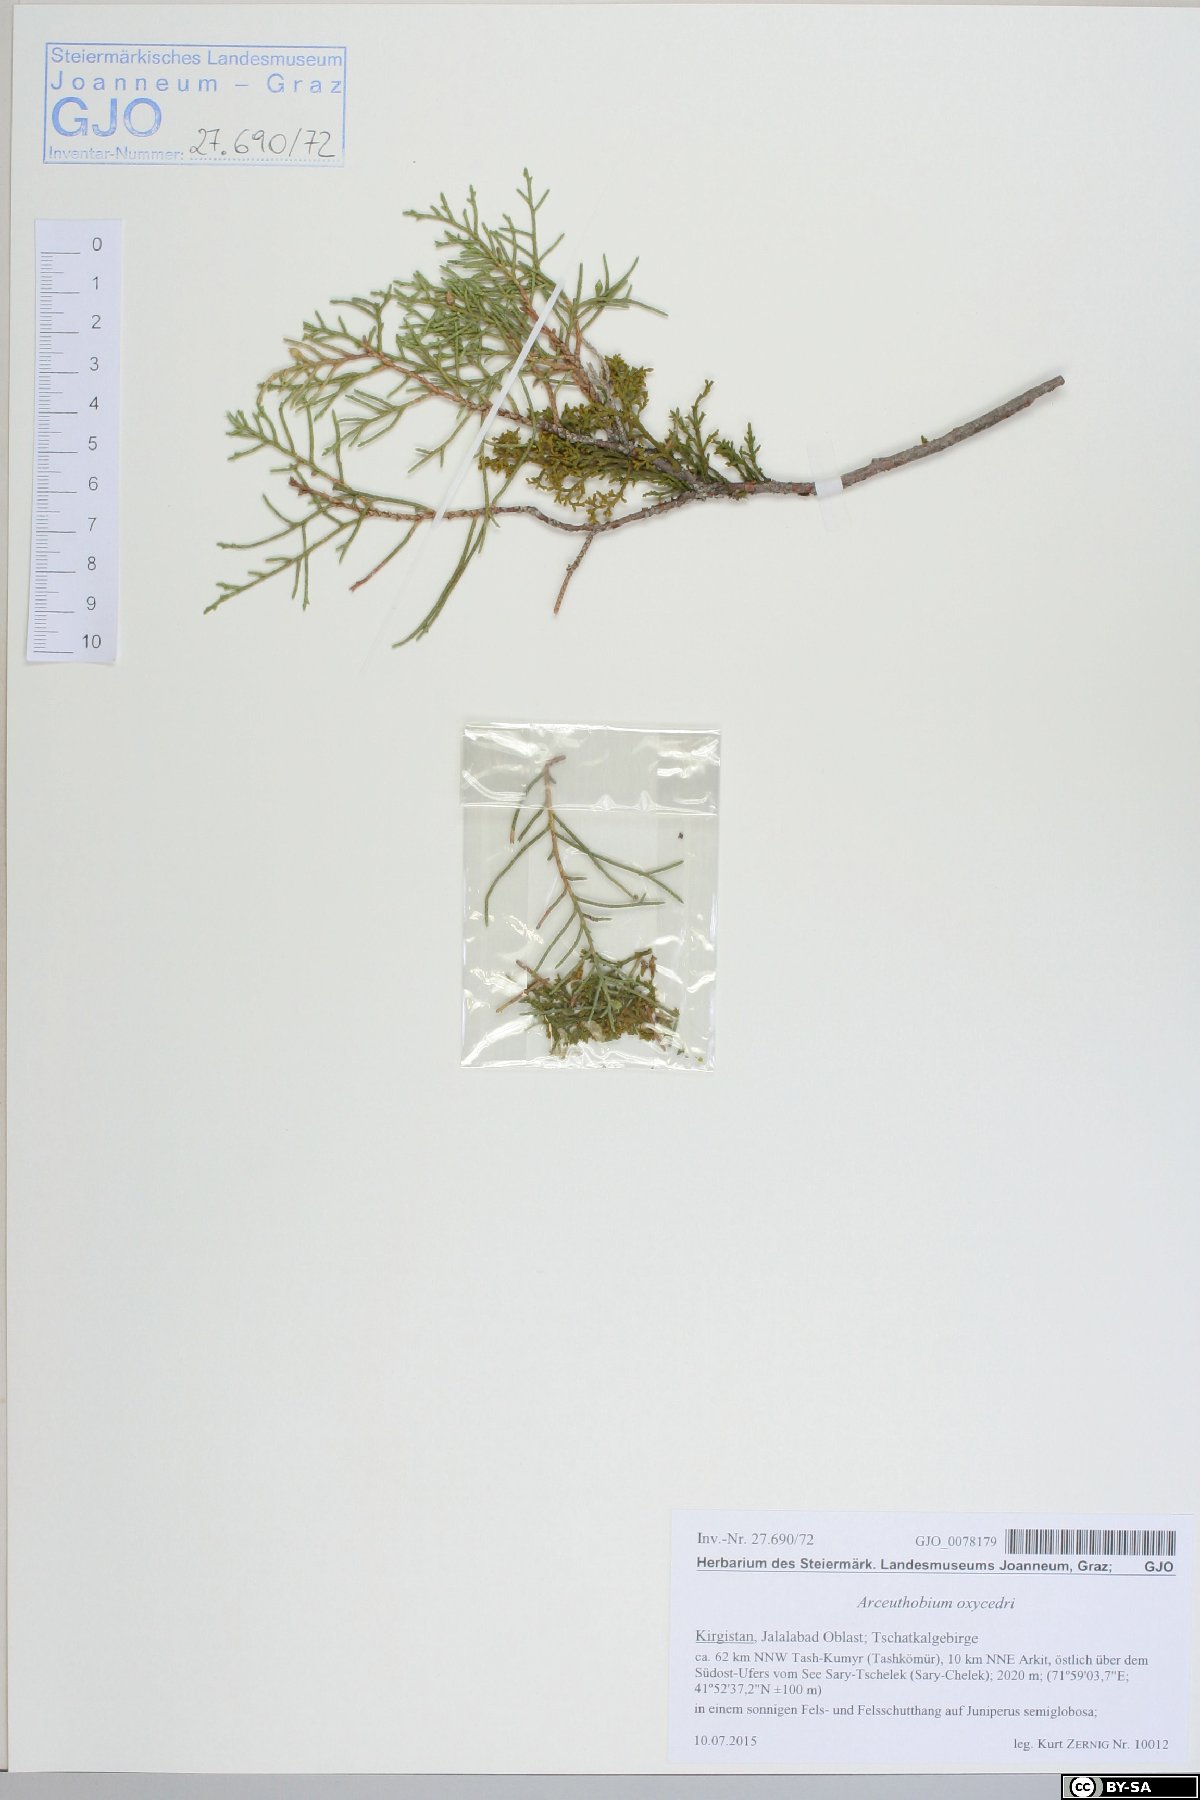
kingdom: Plantae
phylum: Tracheophyta
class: Magnoliopsida
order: Santalales
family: Viscaceae
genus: Arceuthobium
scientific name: Arceuthobium oxycedri
